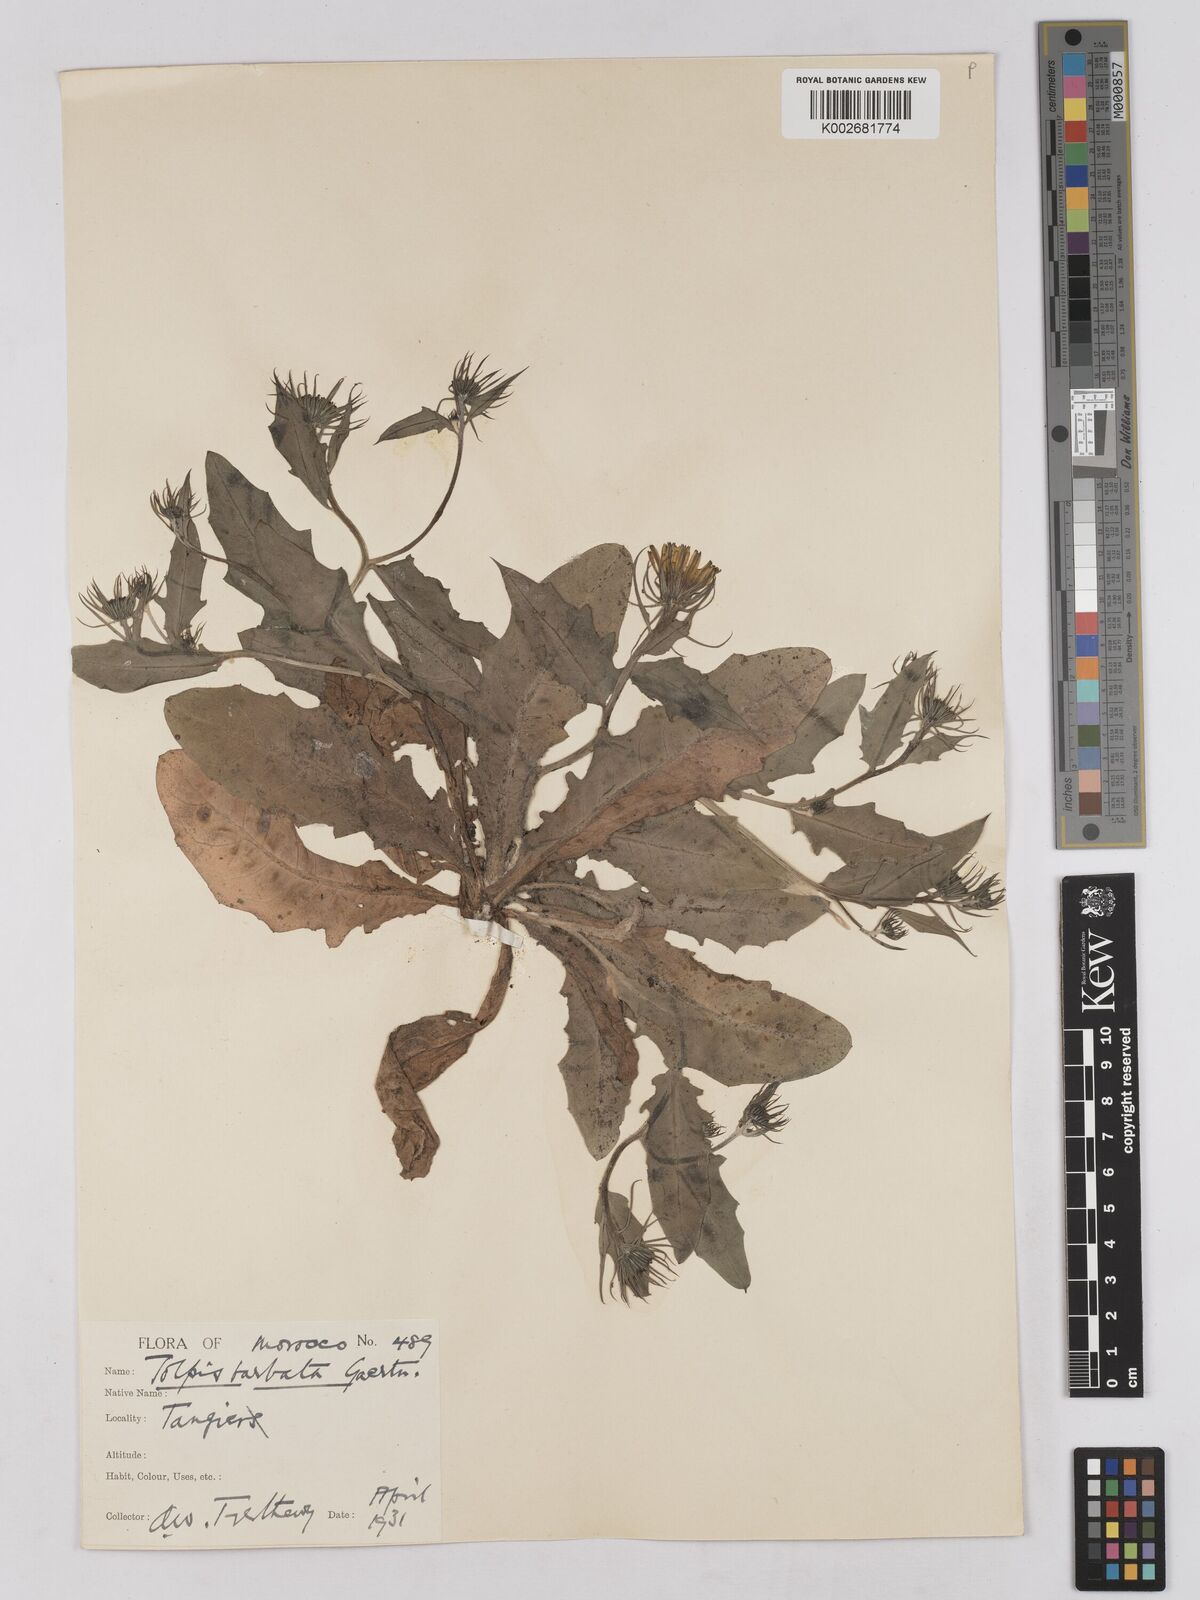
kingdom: Plantae
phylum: Tracheophyta
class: Magnoliopsida
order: Asterales
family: Asteraceae
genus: Tolpis
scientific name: Tolpis barbata
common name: Yellow hawkweed
